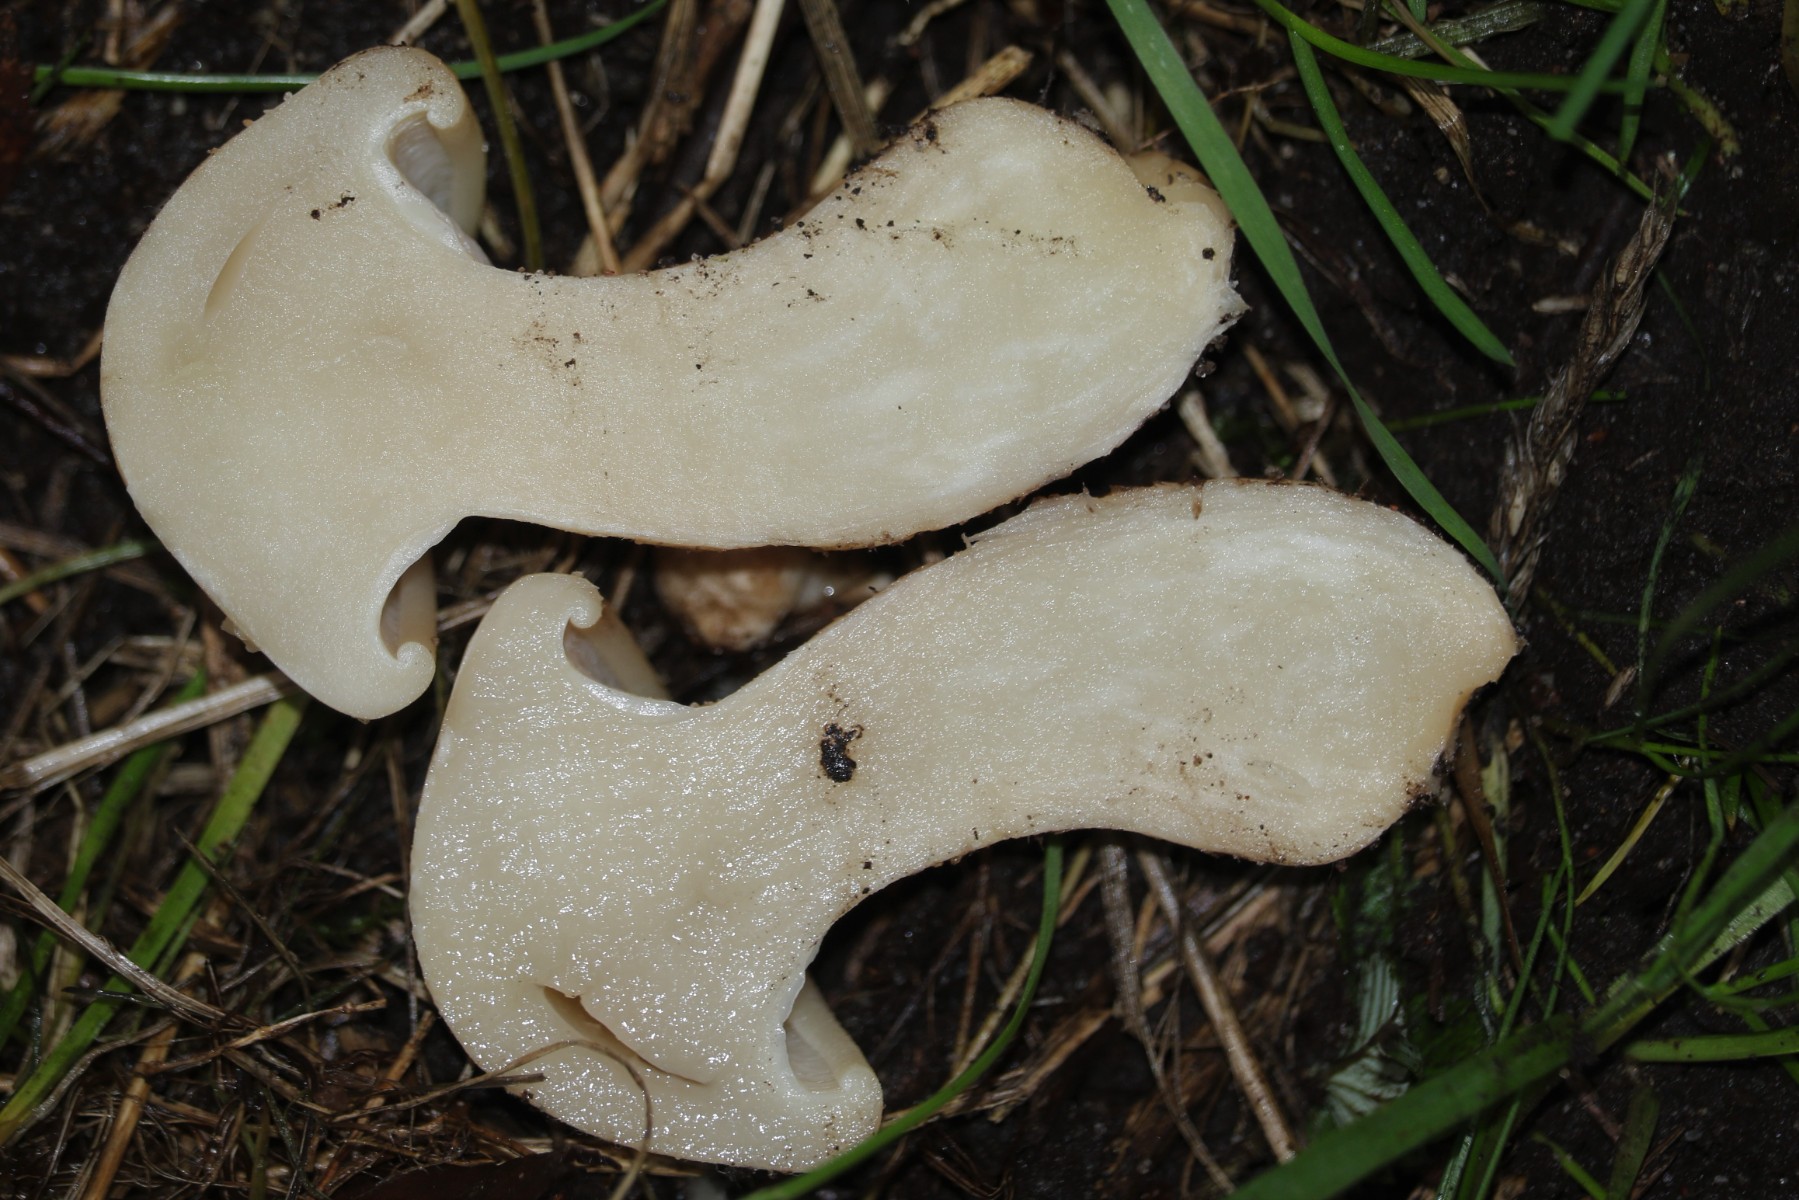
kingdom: Fungi
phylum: Basidiomycota
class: Agaricomycetes
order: Agaricales
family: Lyophyllaceae
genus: Calocybe
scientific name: Calocybe gambosa
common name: vårmusseron
